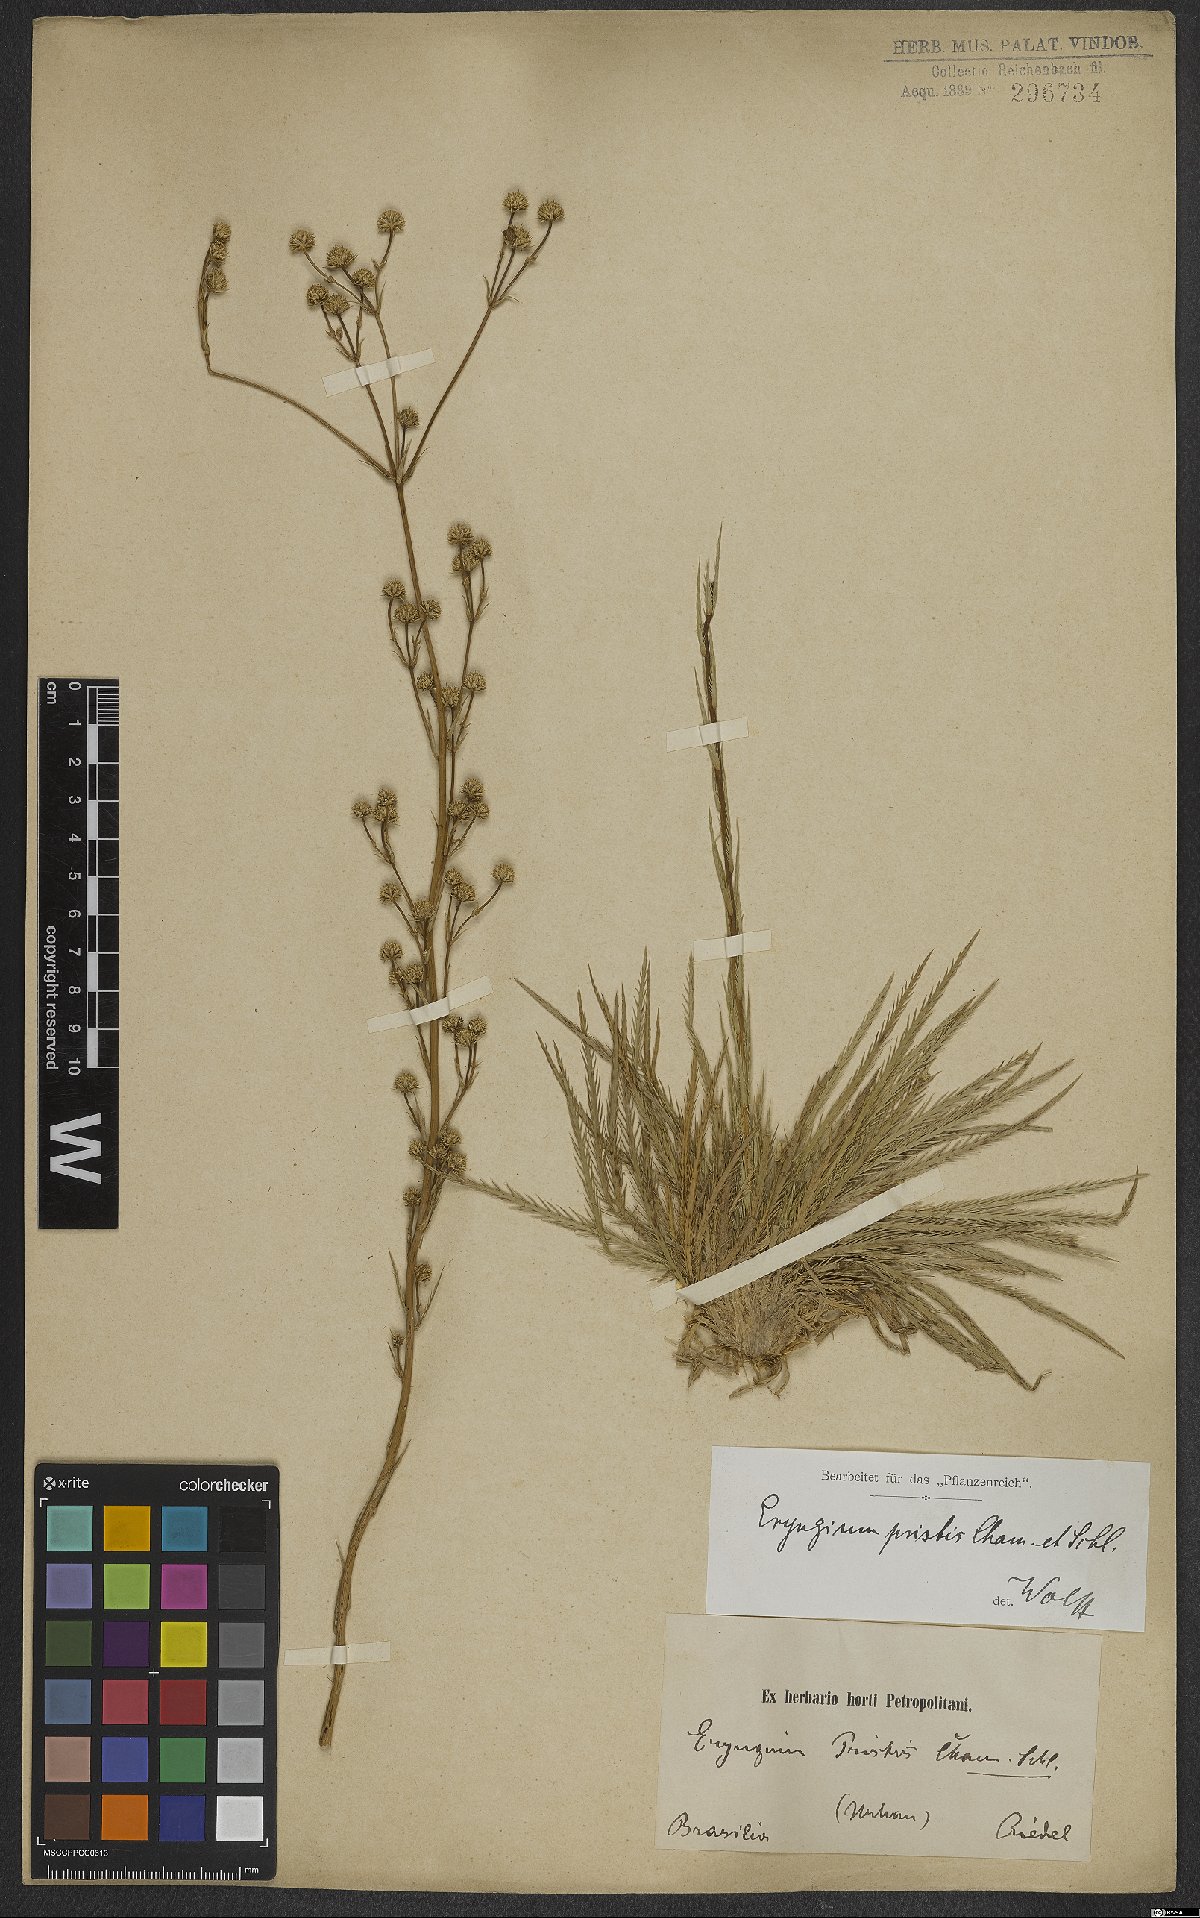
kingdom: Plantae
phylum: Tracheophyta
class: Magnoliopsida
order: Apiales
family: Apiaceae
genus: Eryngium
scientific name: Eryngium pristis
